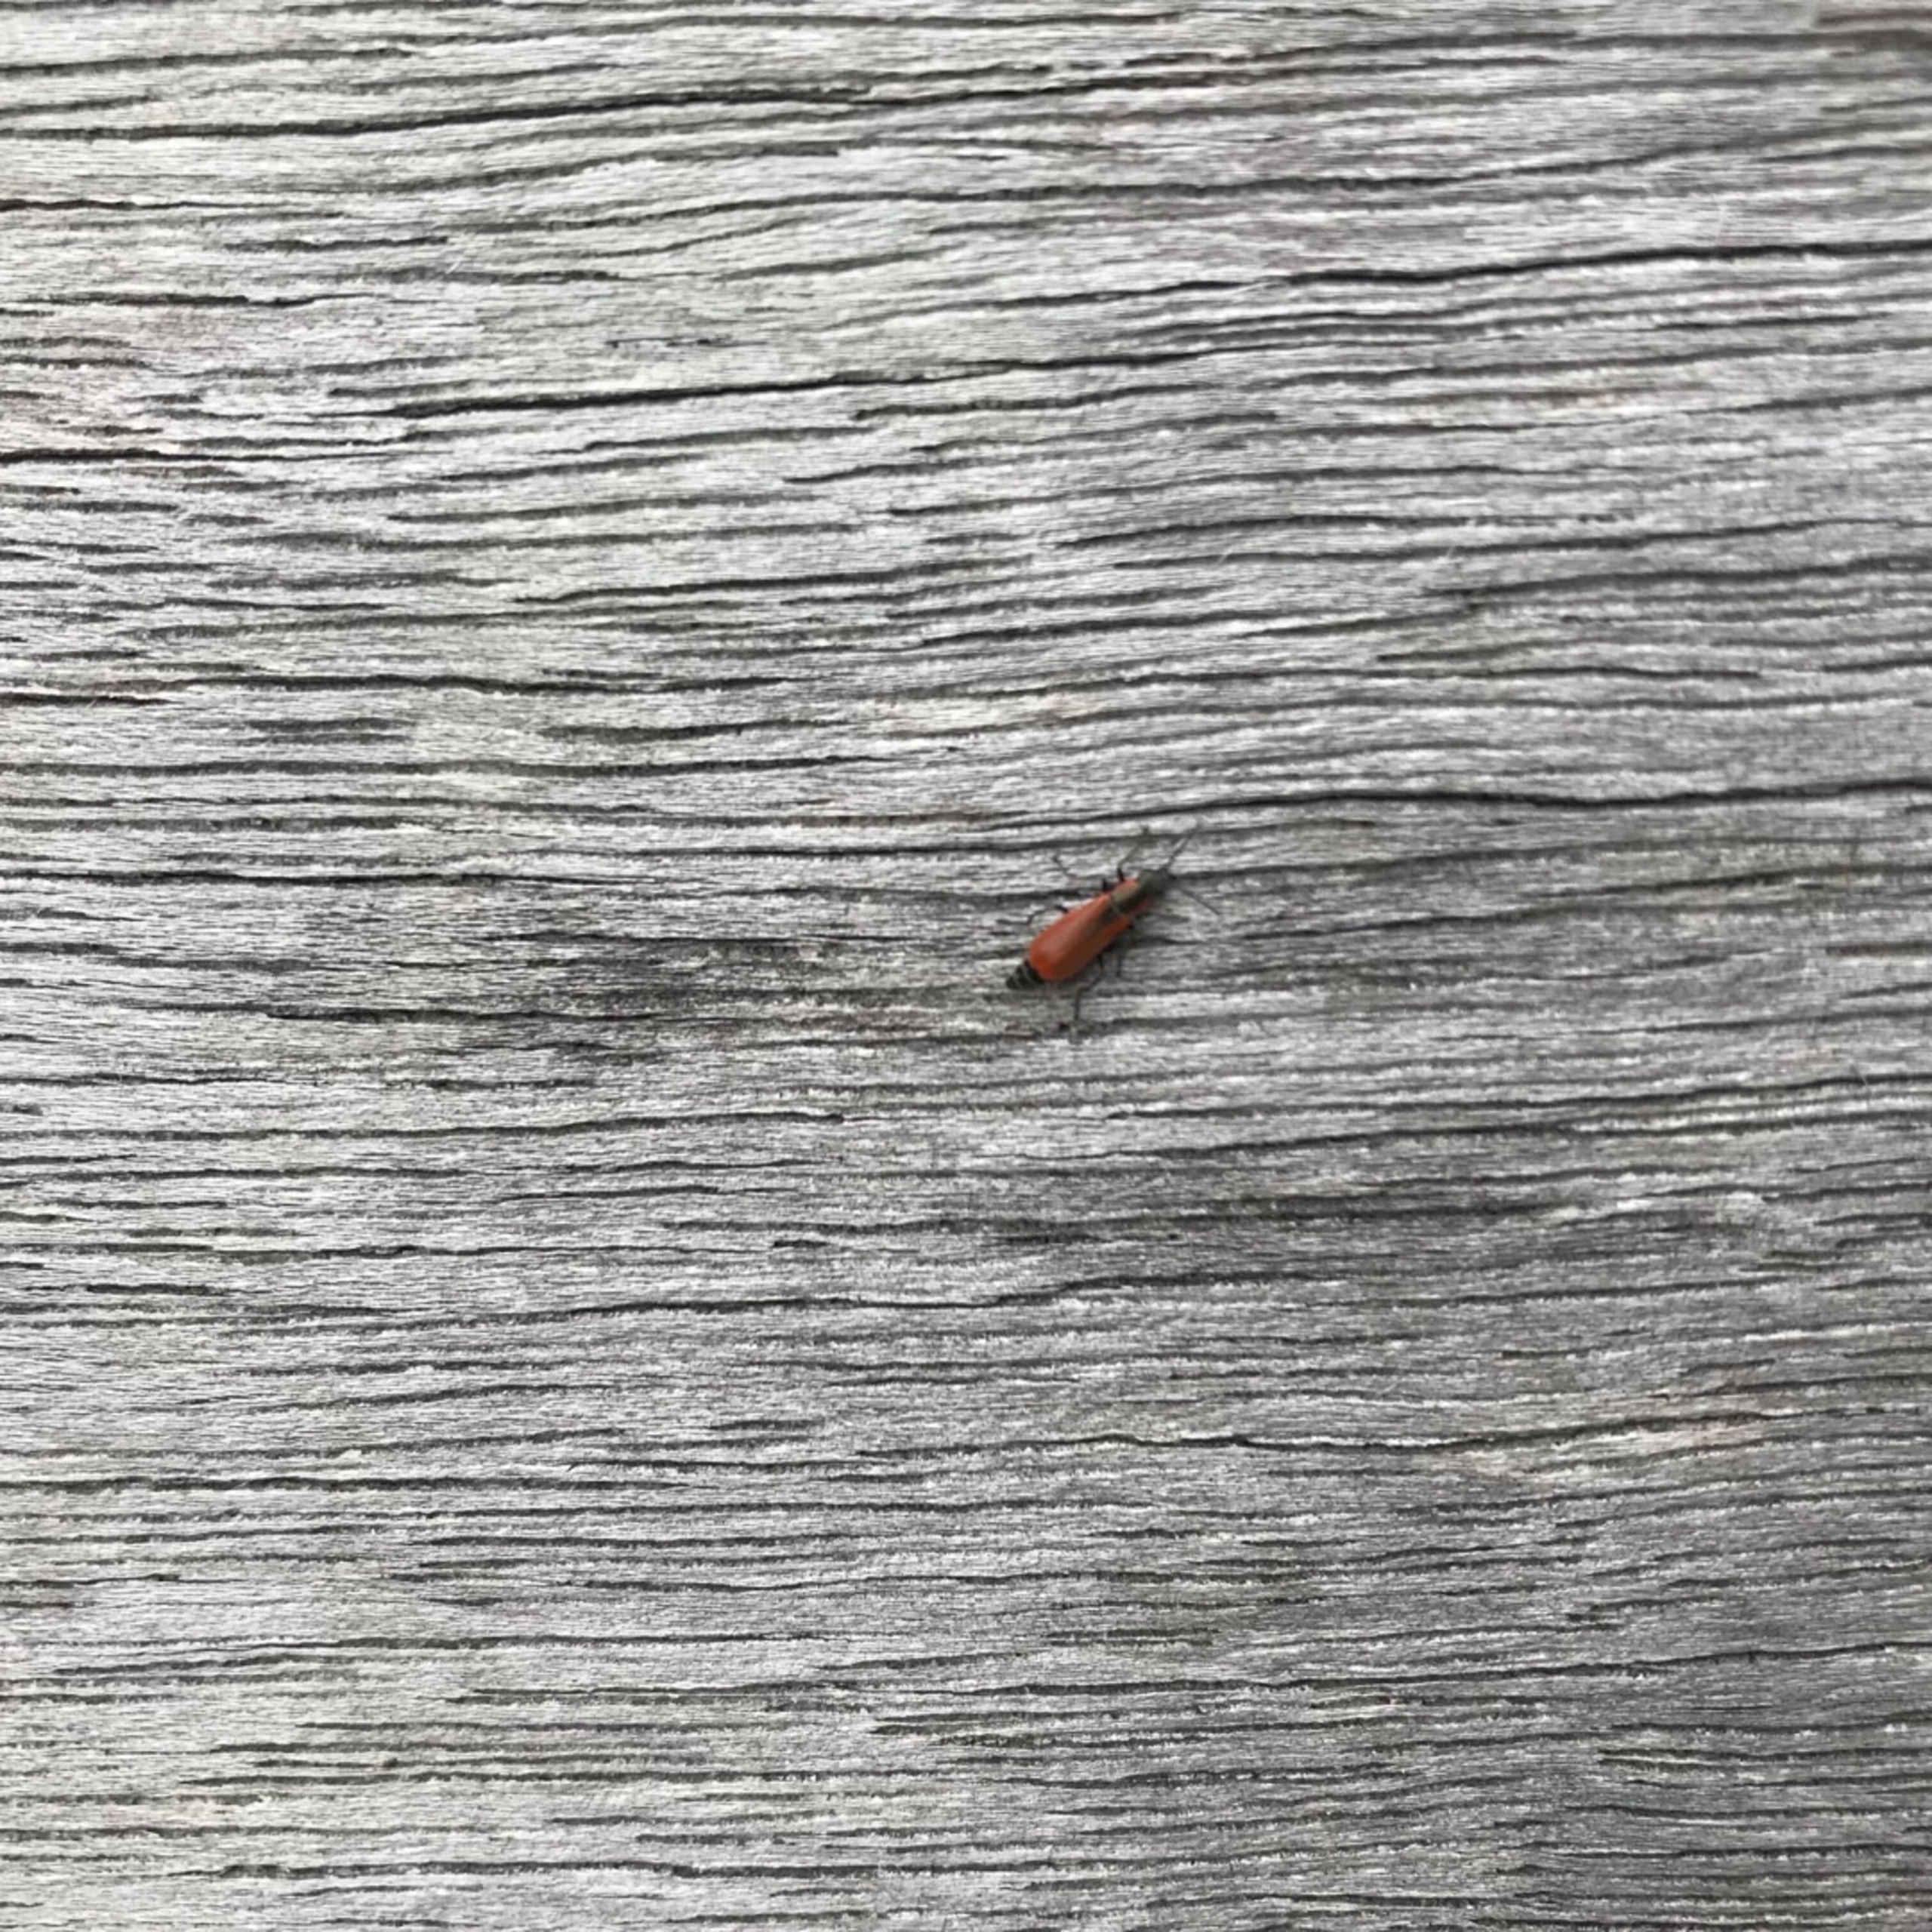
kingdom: Animalia
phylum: Arthropoda
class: Insecta
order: Coleoptera
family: Melyridae
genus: Anthocomus
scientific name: Anthocomus rufus
